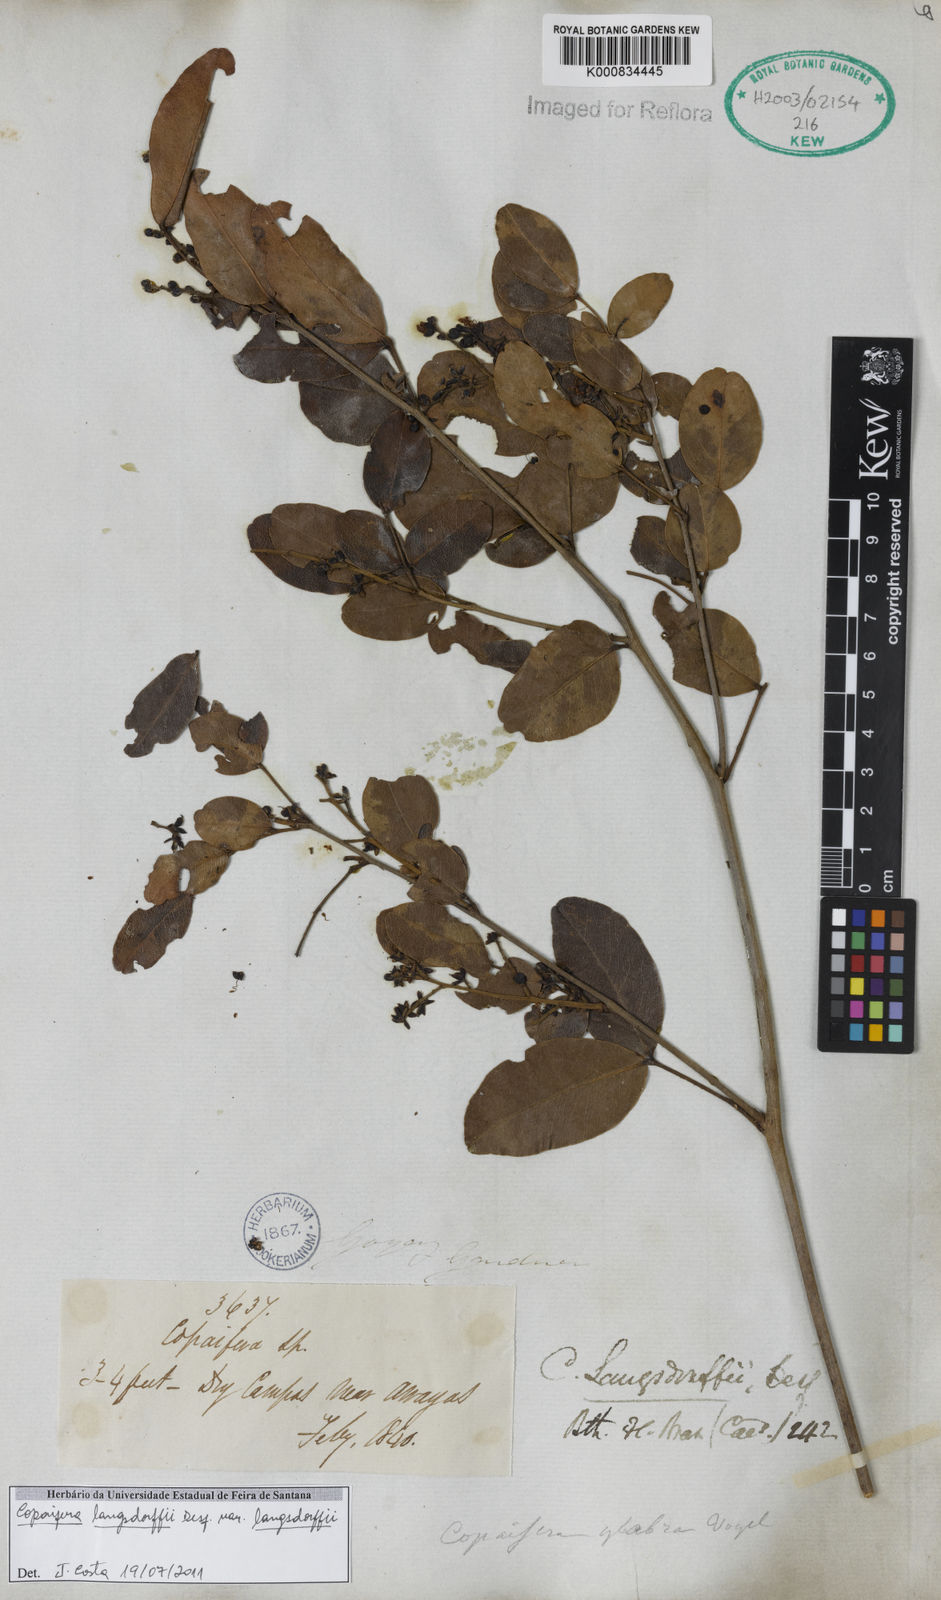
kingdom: Plantae
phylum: Tracheophyta
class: Magnoliopsida
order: Fabales
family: Fabaceae
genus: Copaifera
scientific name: Copaifera langsdorffii
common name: Brazilian diesel tree
